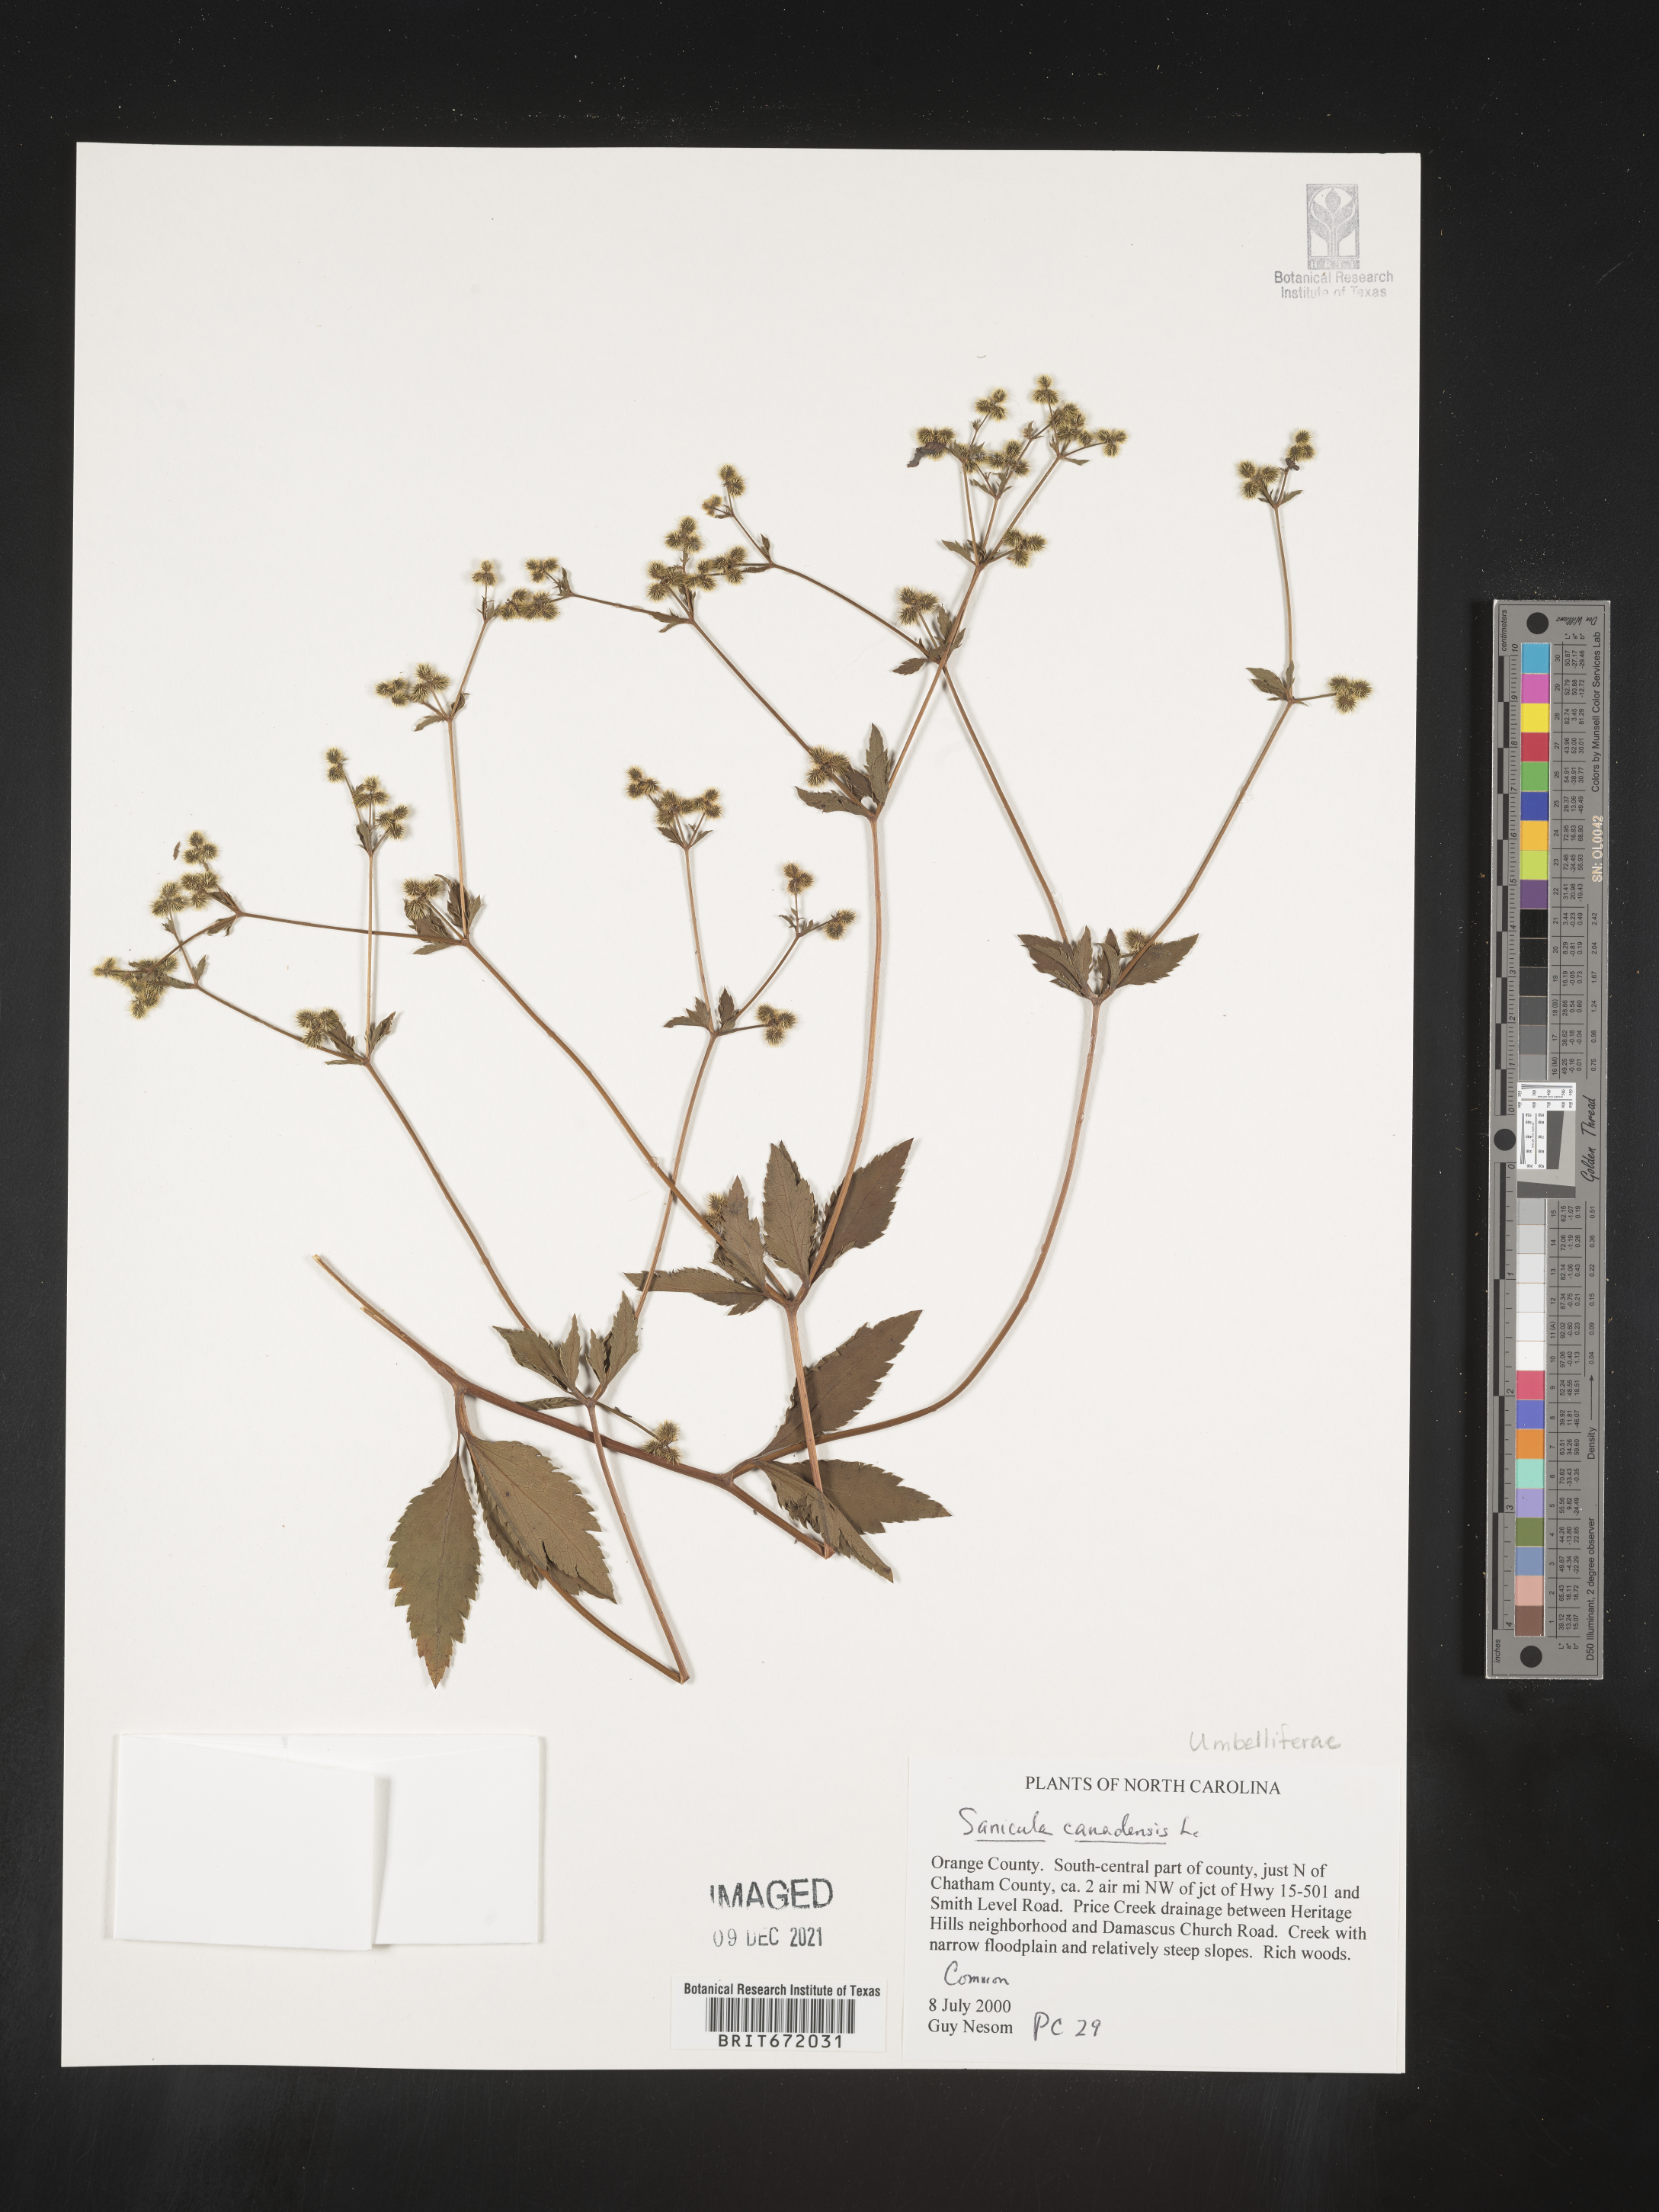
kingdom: Plantae
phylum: Tracheophyta
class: Magnoliopsida
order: Apiales
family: Apiaceae
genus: Sanicula
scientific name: Sanicula canadensis
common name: Canada sanicle
